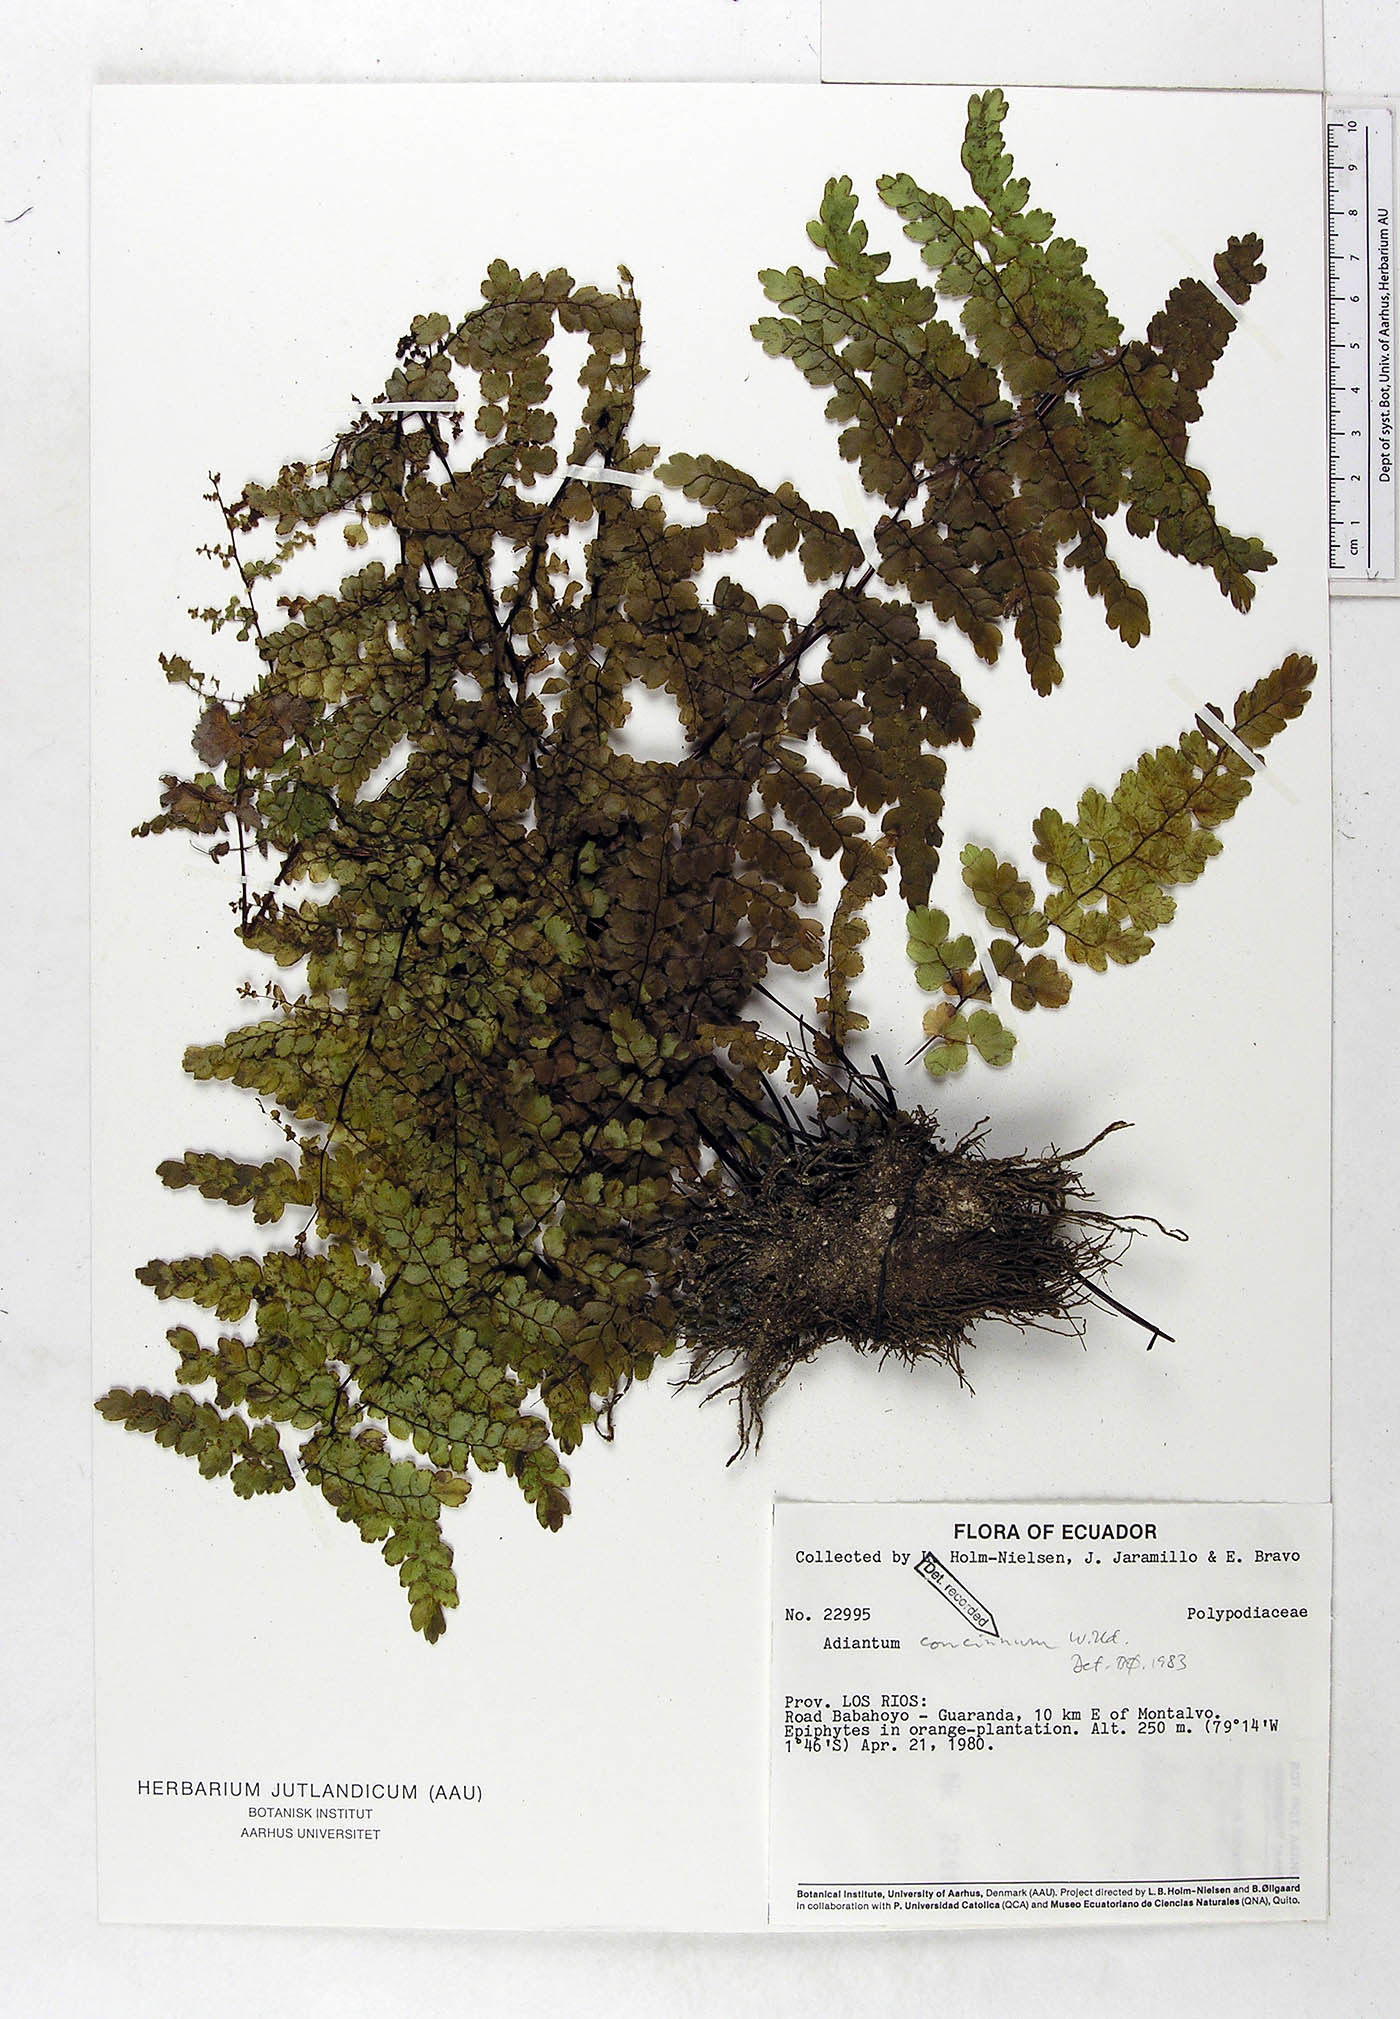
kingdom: Plantae
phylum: Tracheophyta
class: Polypodiopsida
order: Polypodiales
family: Pteridaceae
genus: Adiantum
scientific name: Adiantum concinnum
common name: Brittle maidenhair fern
